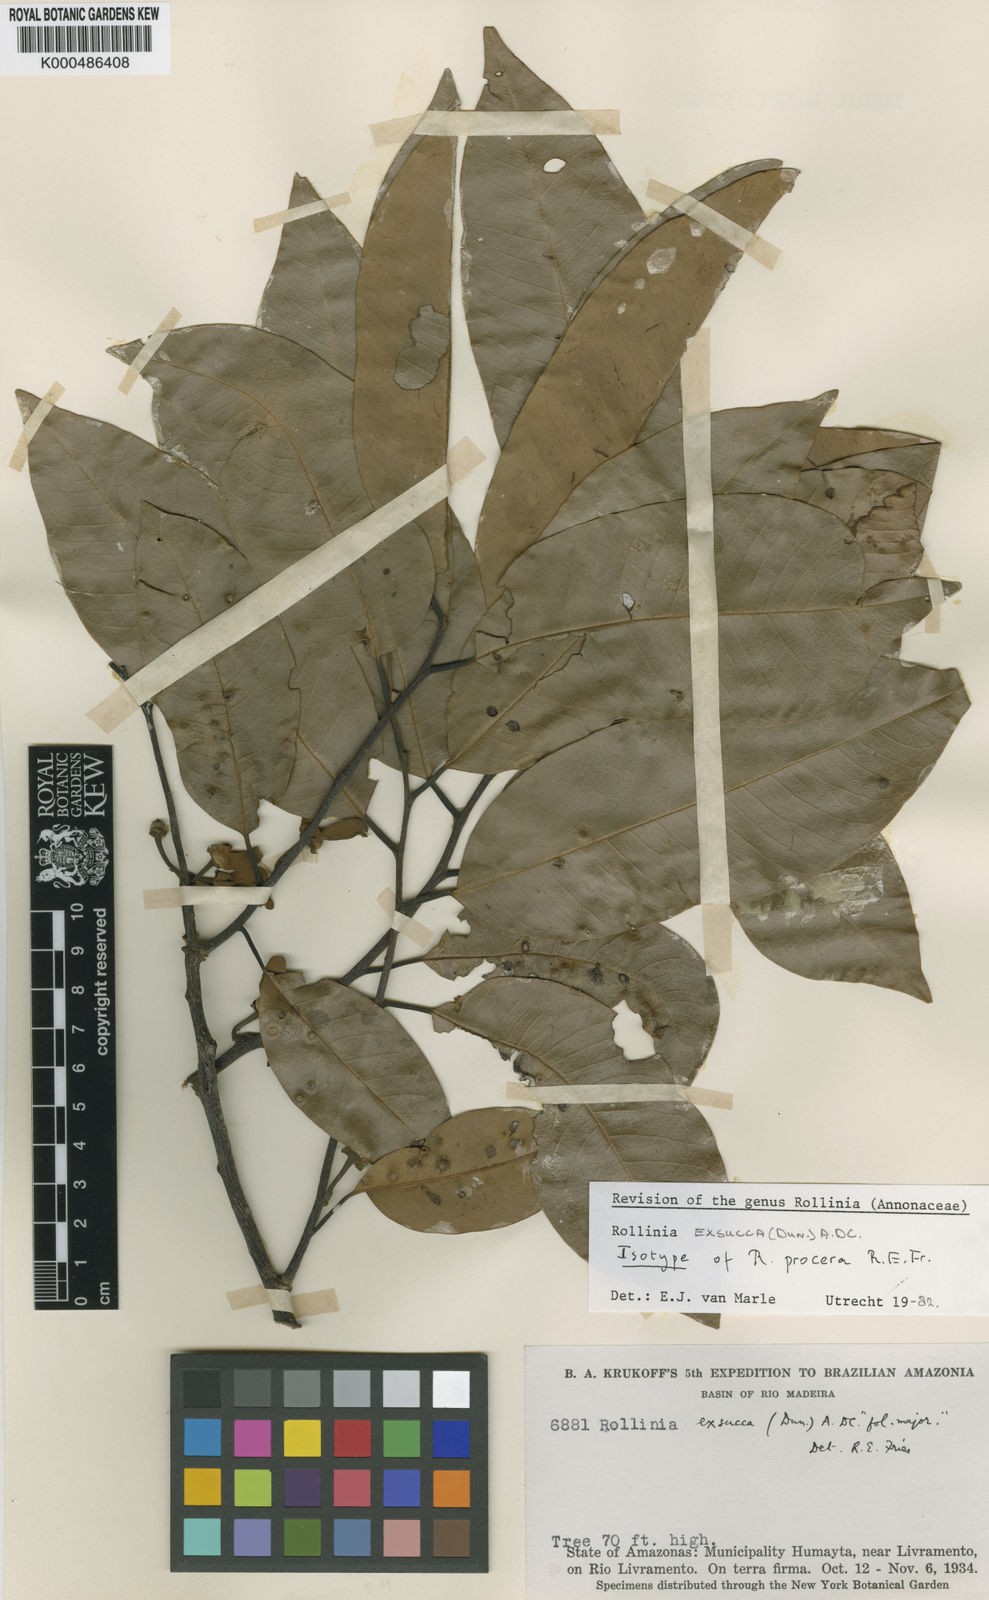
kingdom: Plantae
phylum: Tracheophyta
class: Magnoliopsida
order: Magnoliales
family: Annonaceae
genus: Annona
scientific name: Annona
